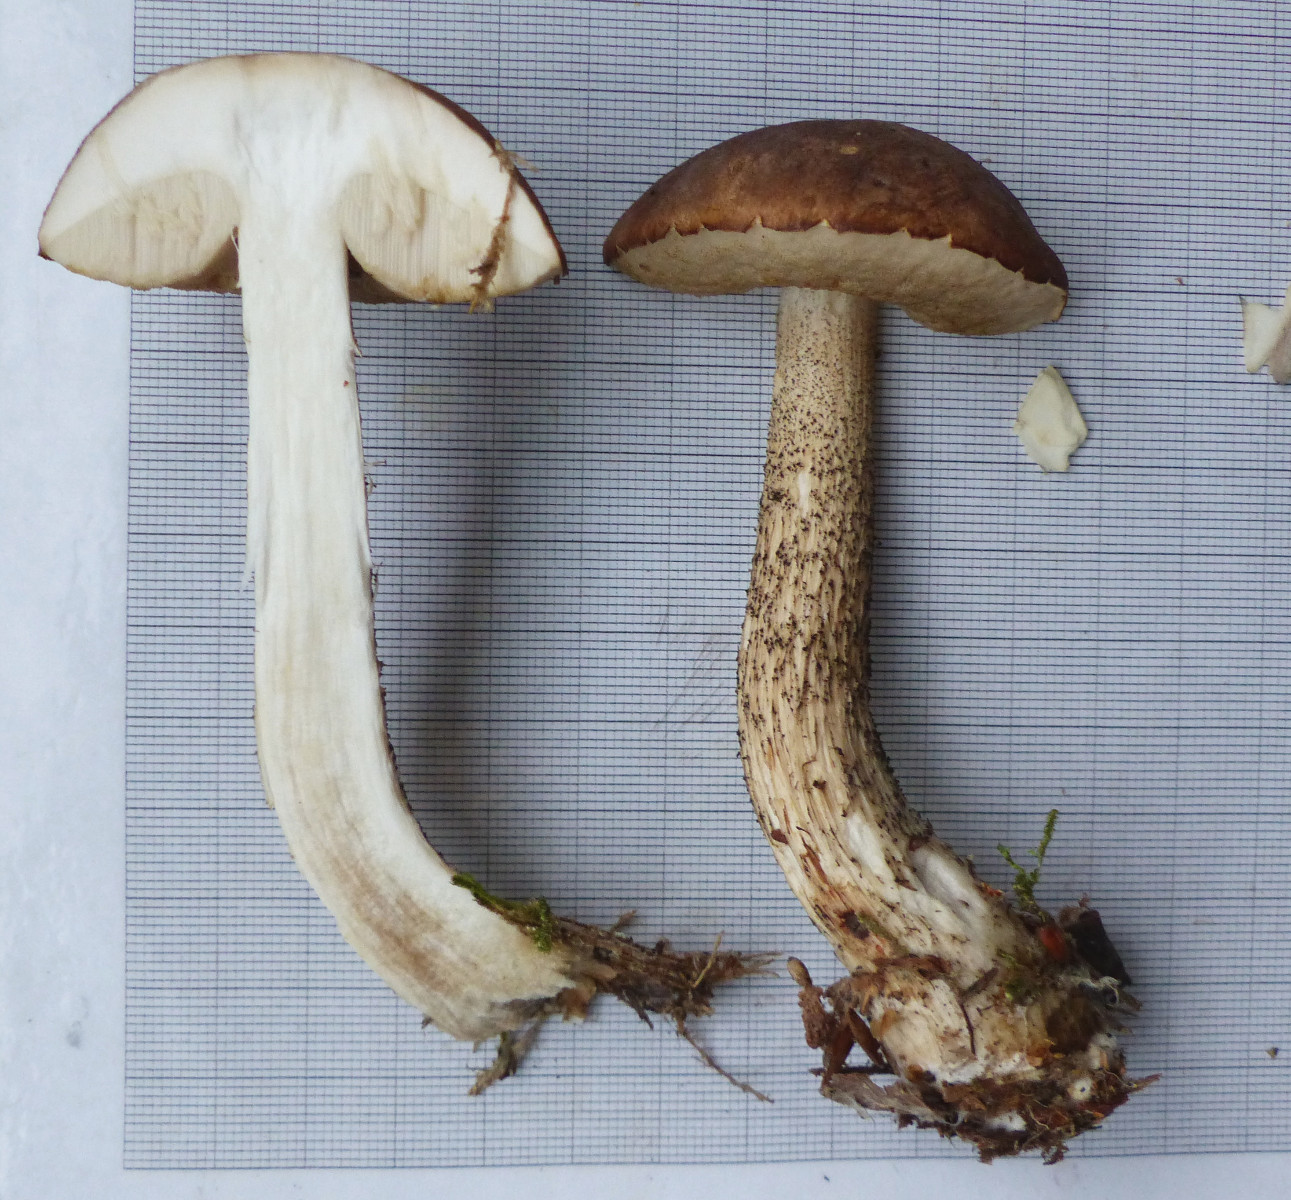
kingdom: Fungi
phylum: Basidiomycota
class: Agaricomycetes
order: Boletales
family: Boletaceae
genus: Leccinum
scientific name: Leccinum scabrum
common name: brun skælrørhat
